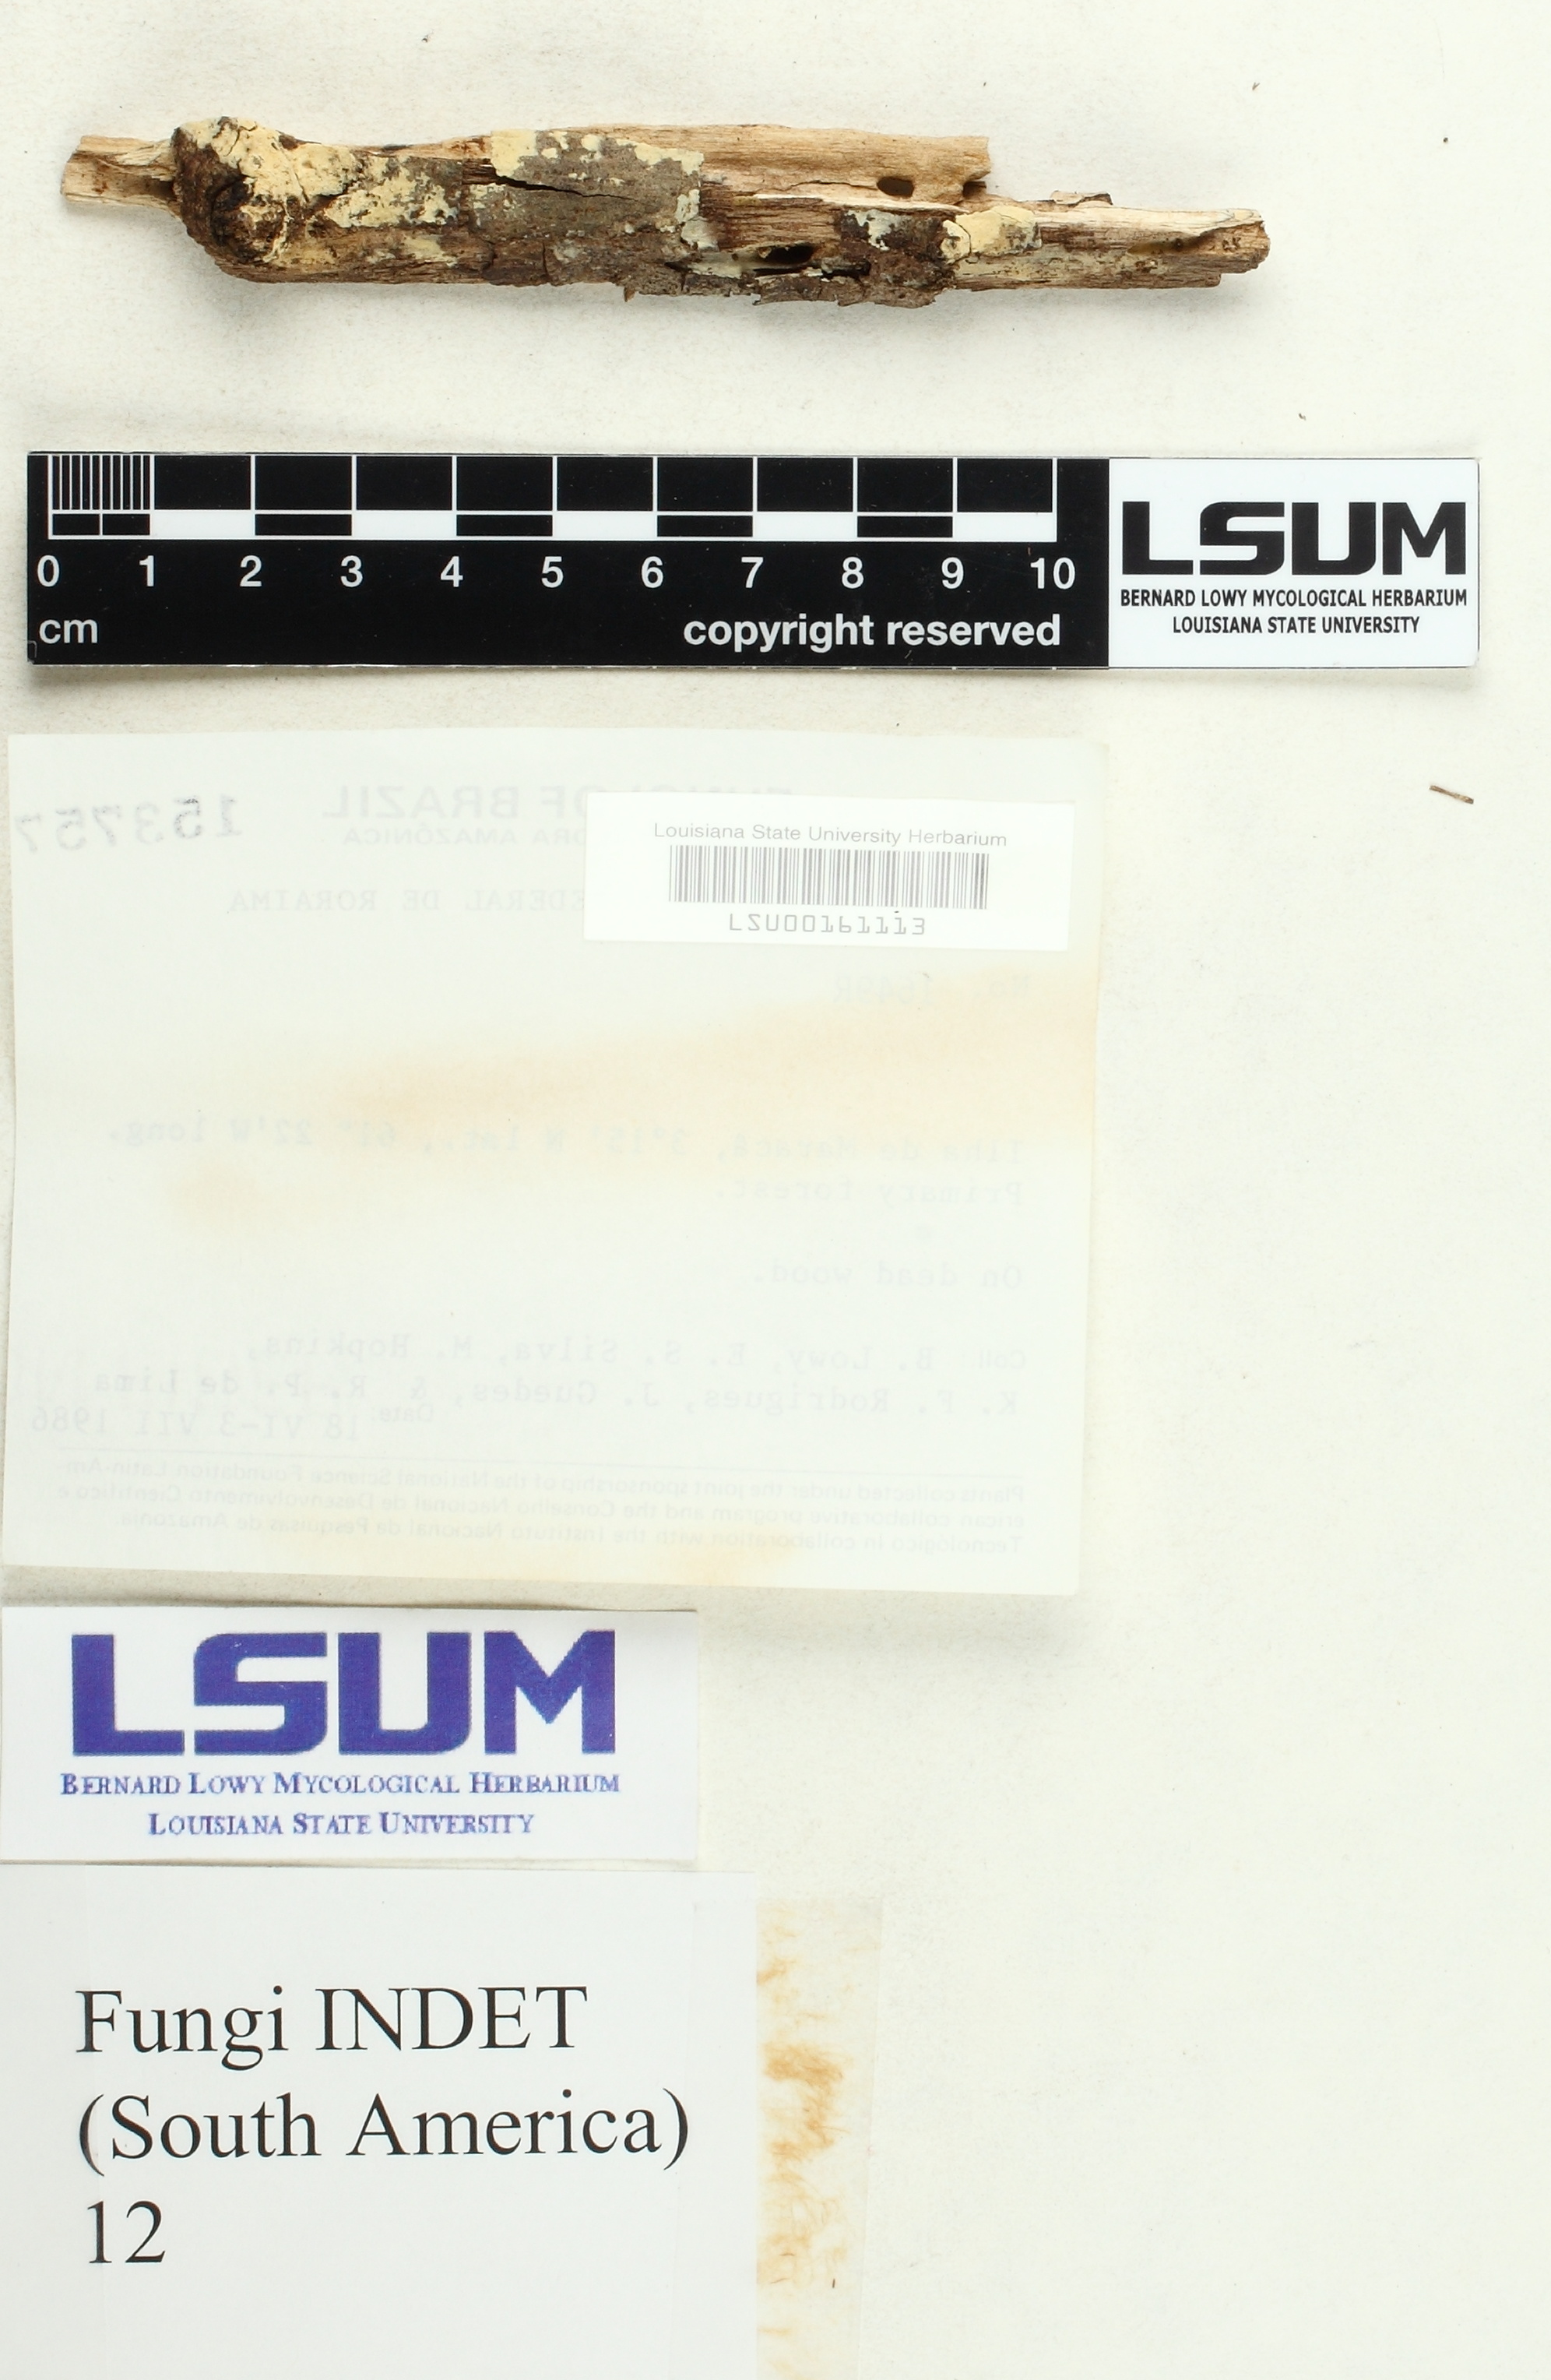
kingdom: Fungi
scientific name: Fungi
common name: Fungi
